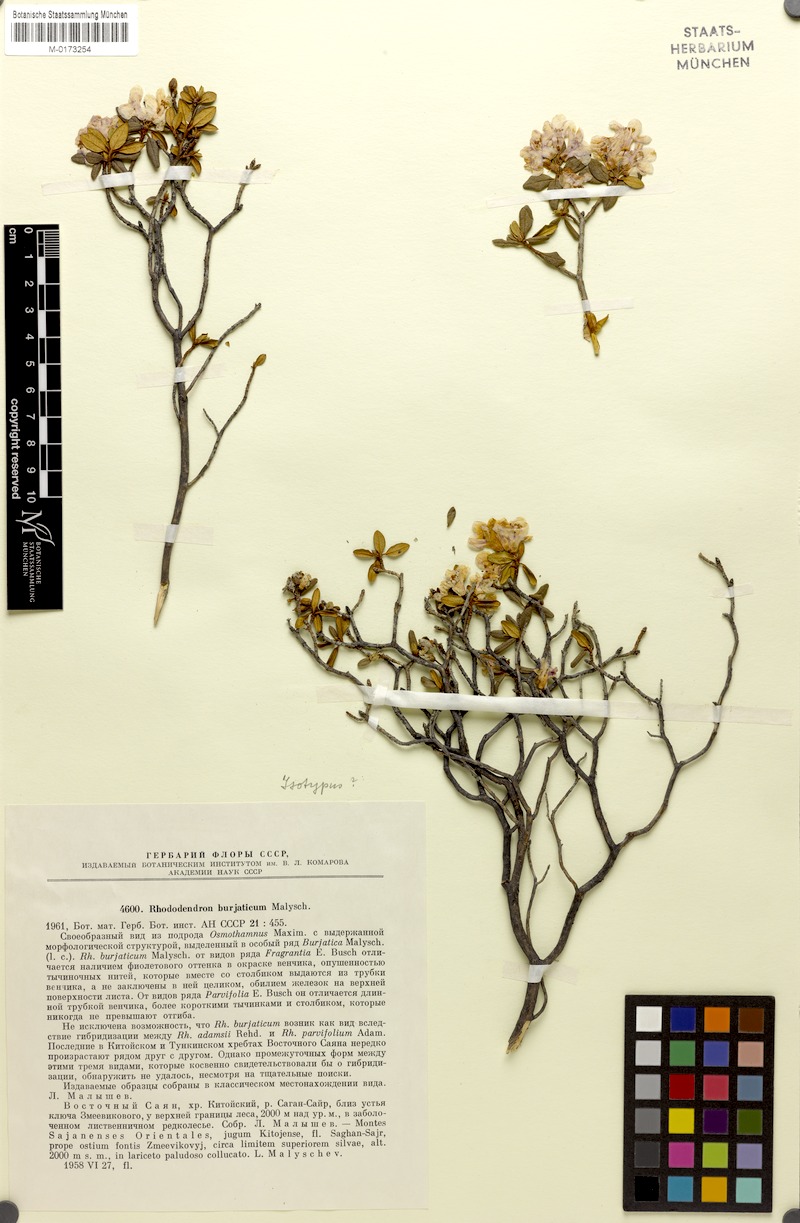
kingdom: Plantae
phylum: Tracheophyta
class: Magnoliopsida
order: Ericales
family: Ericaceae
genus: Rhododendron
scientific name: Rhododendron burjaticum
